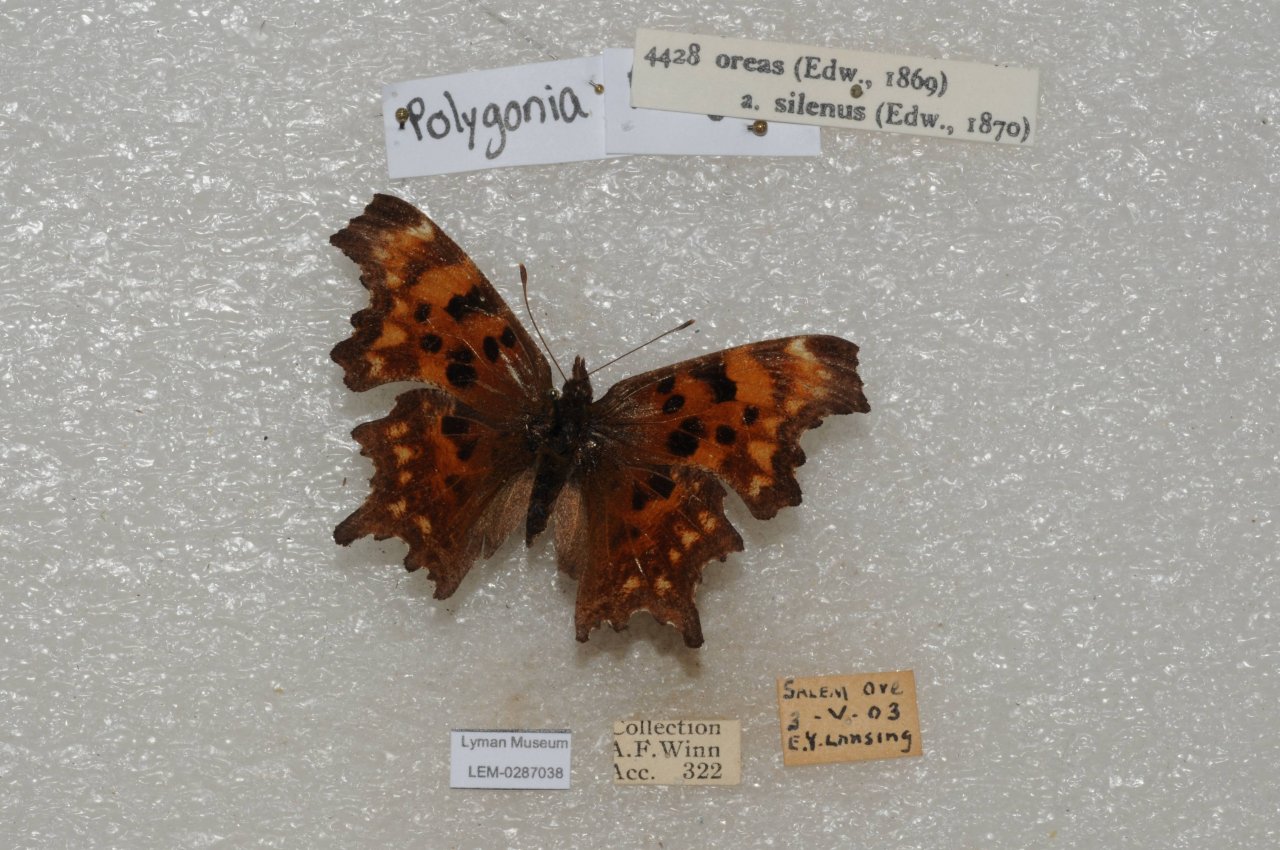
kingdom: Animalia
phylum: Arthropoda
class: Insecta
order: Lepidoptera
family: Nymphalidae
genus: Polygonia
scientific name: Polygonia oreas
